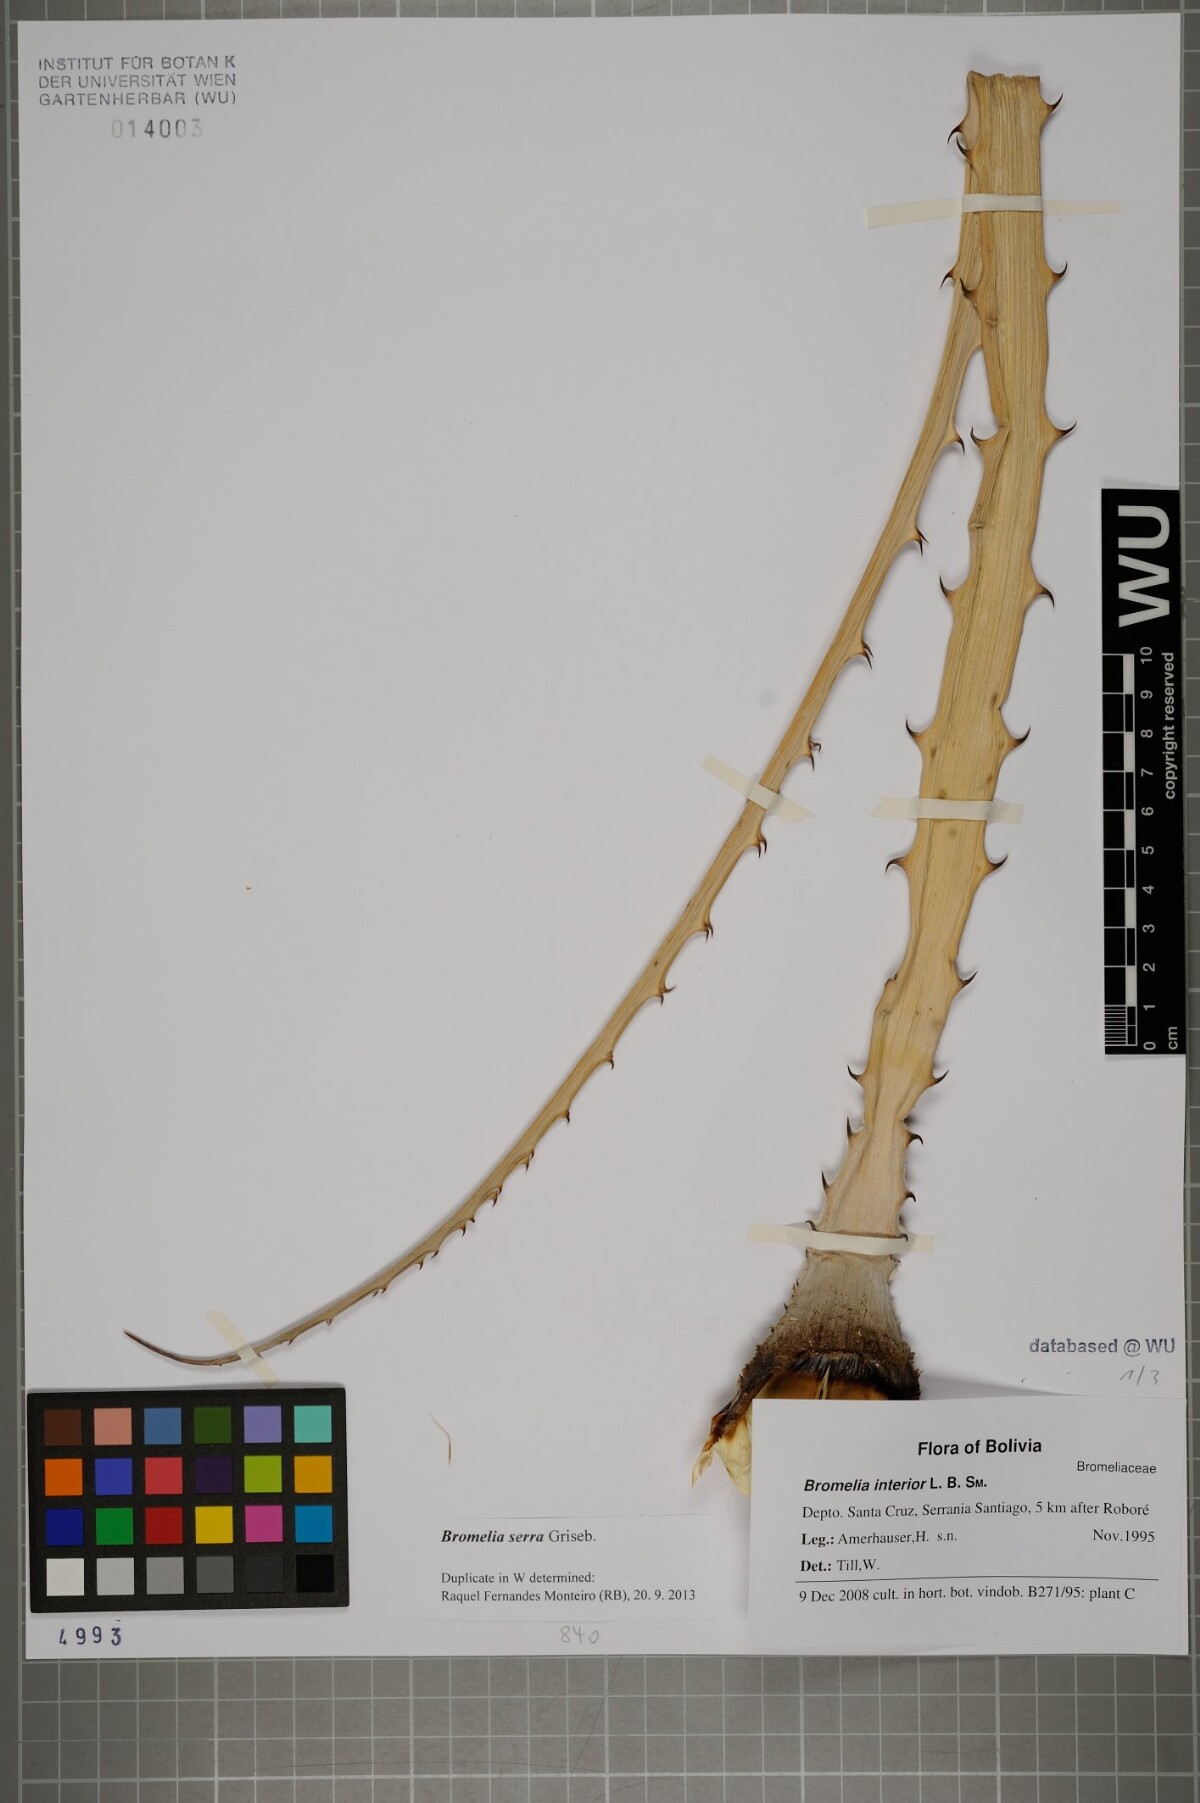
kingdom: Plantae
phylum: Tracheophyta
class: Liliopsida
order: Poales
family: Bromeliaceae
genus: Bromelia
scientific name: Bromelia serra
